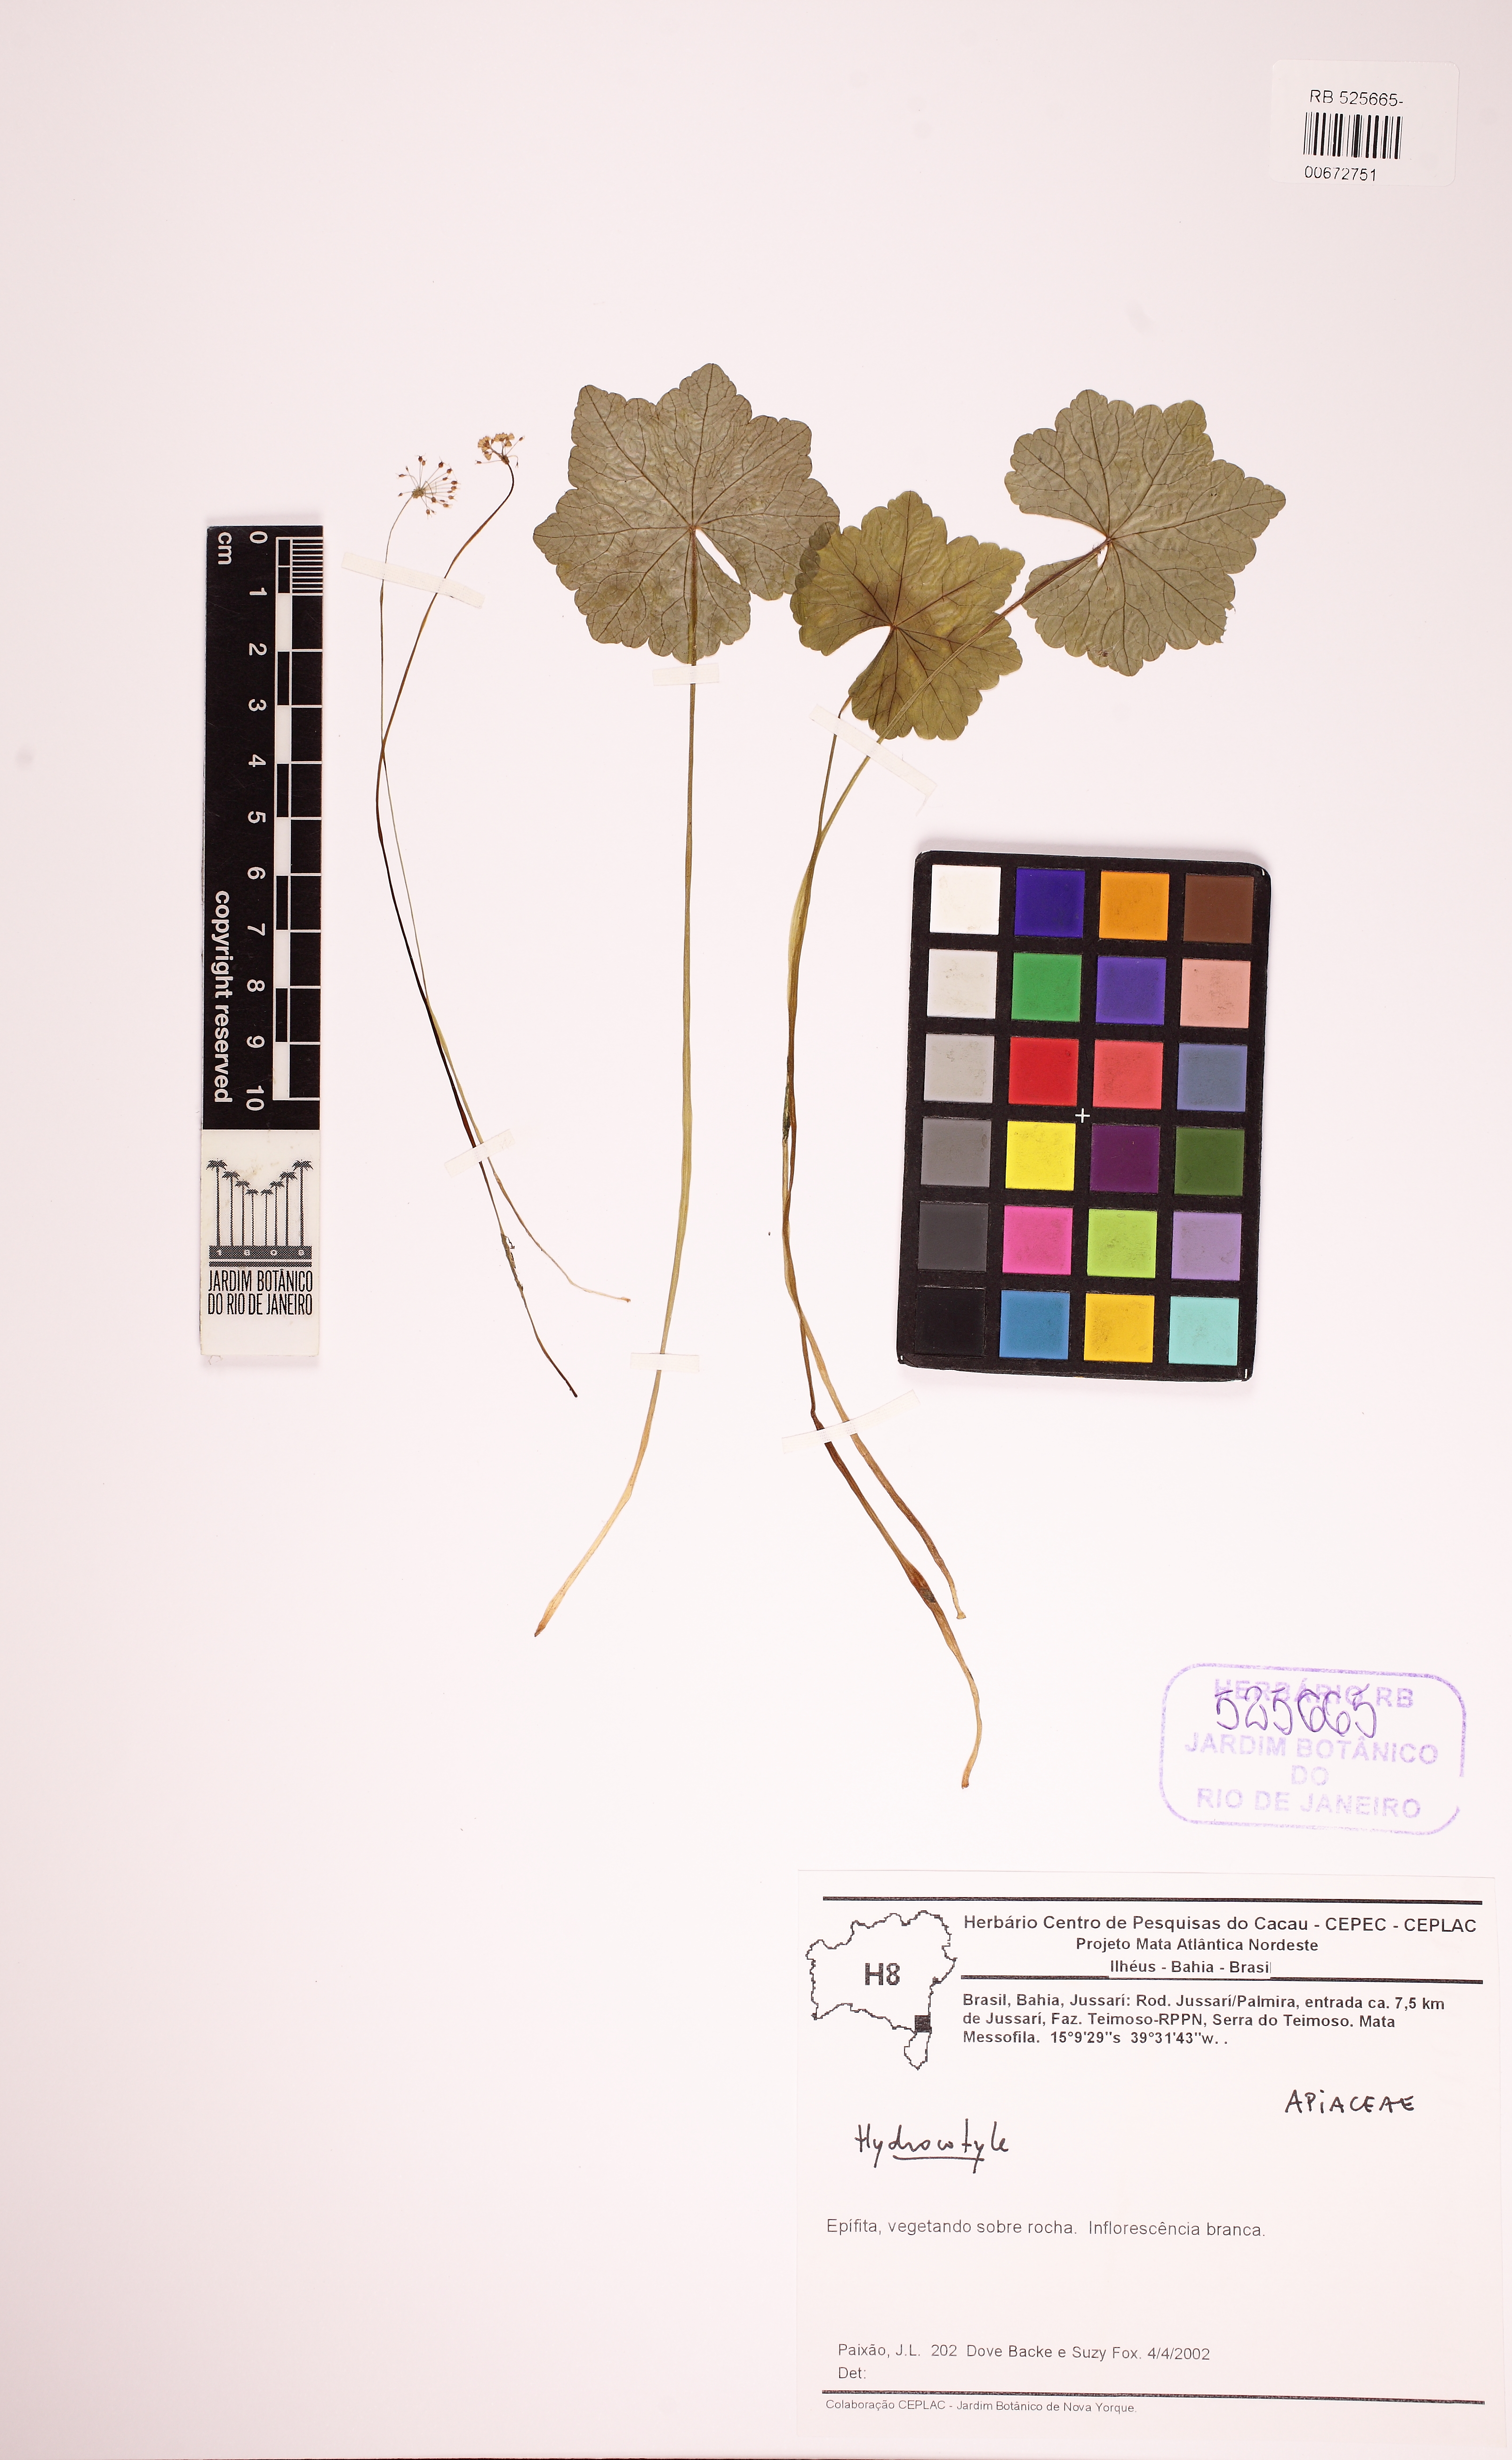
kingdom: Plantae
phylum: Tracheophyta
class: Magnoliopsida
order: Apiales
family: Araliaceae
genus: Hydrocotyle
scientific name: Hydrocotyle callicephala
